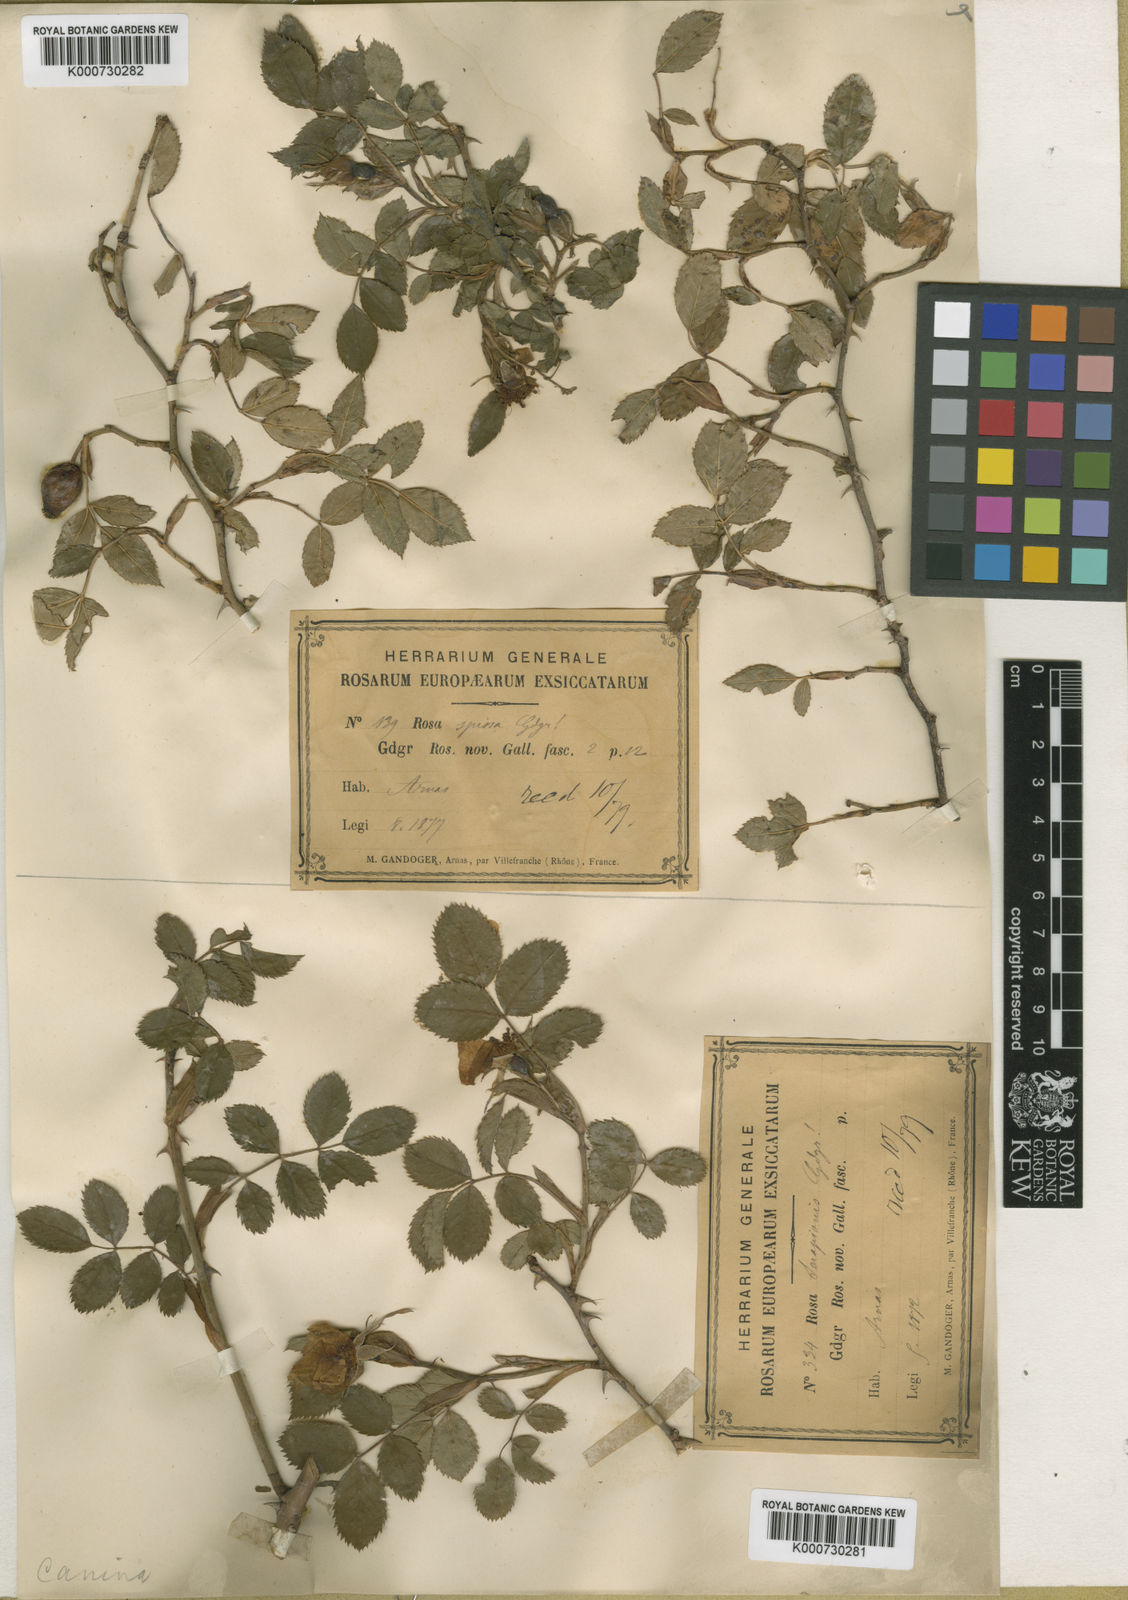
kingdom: Plantae
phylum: Tracheophyta
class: Magnoliopsida
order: Rosales
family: Rosaceae
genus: Rosa
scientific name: Rosa canina
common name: Dog rose
